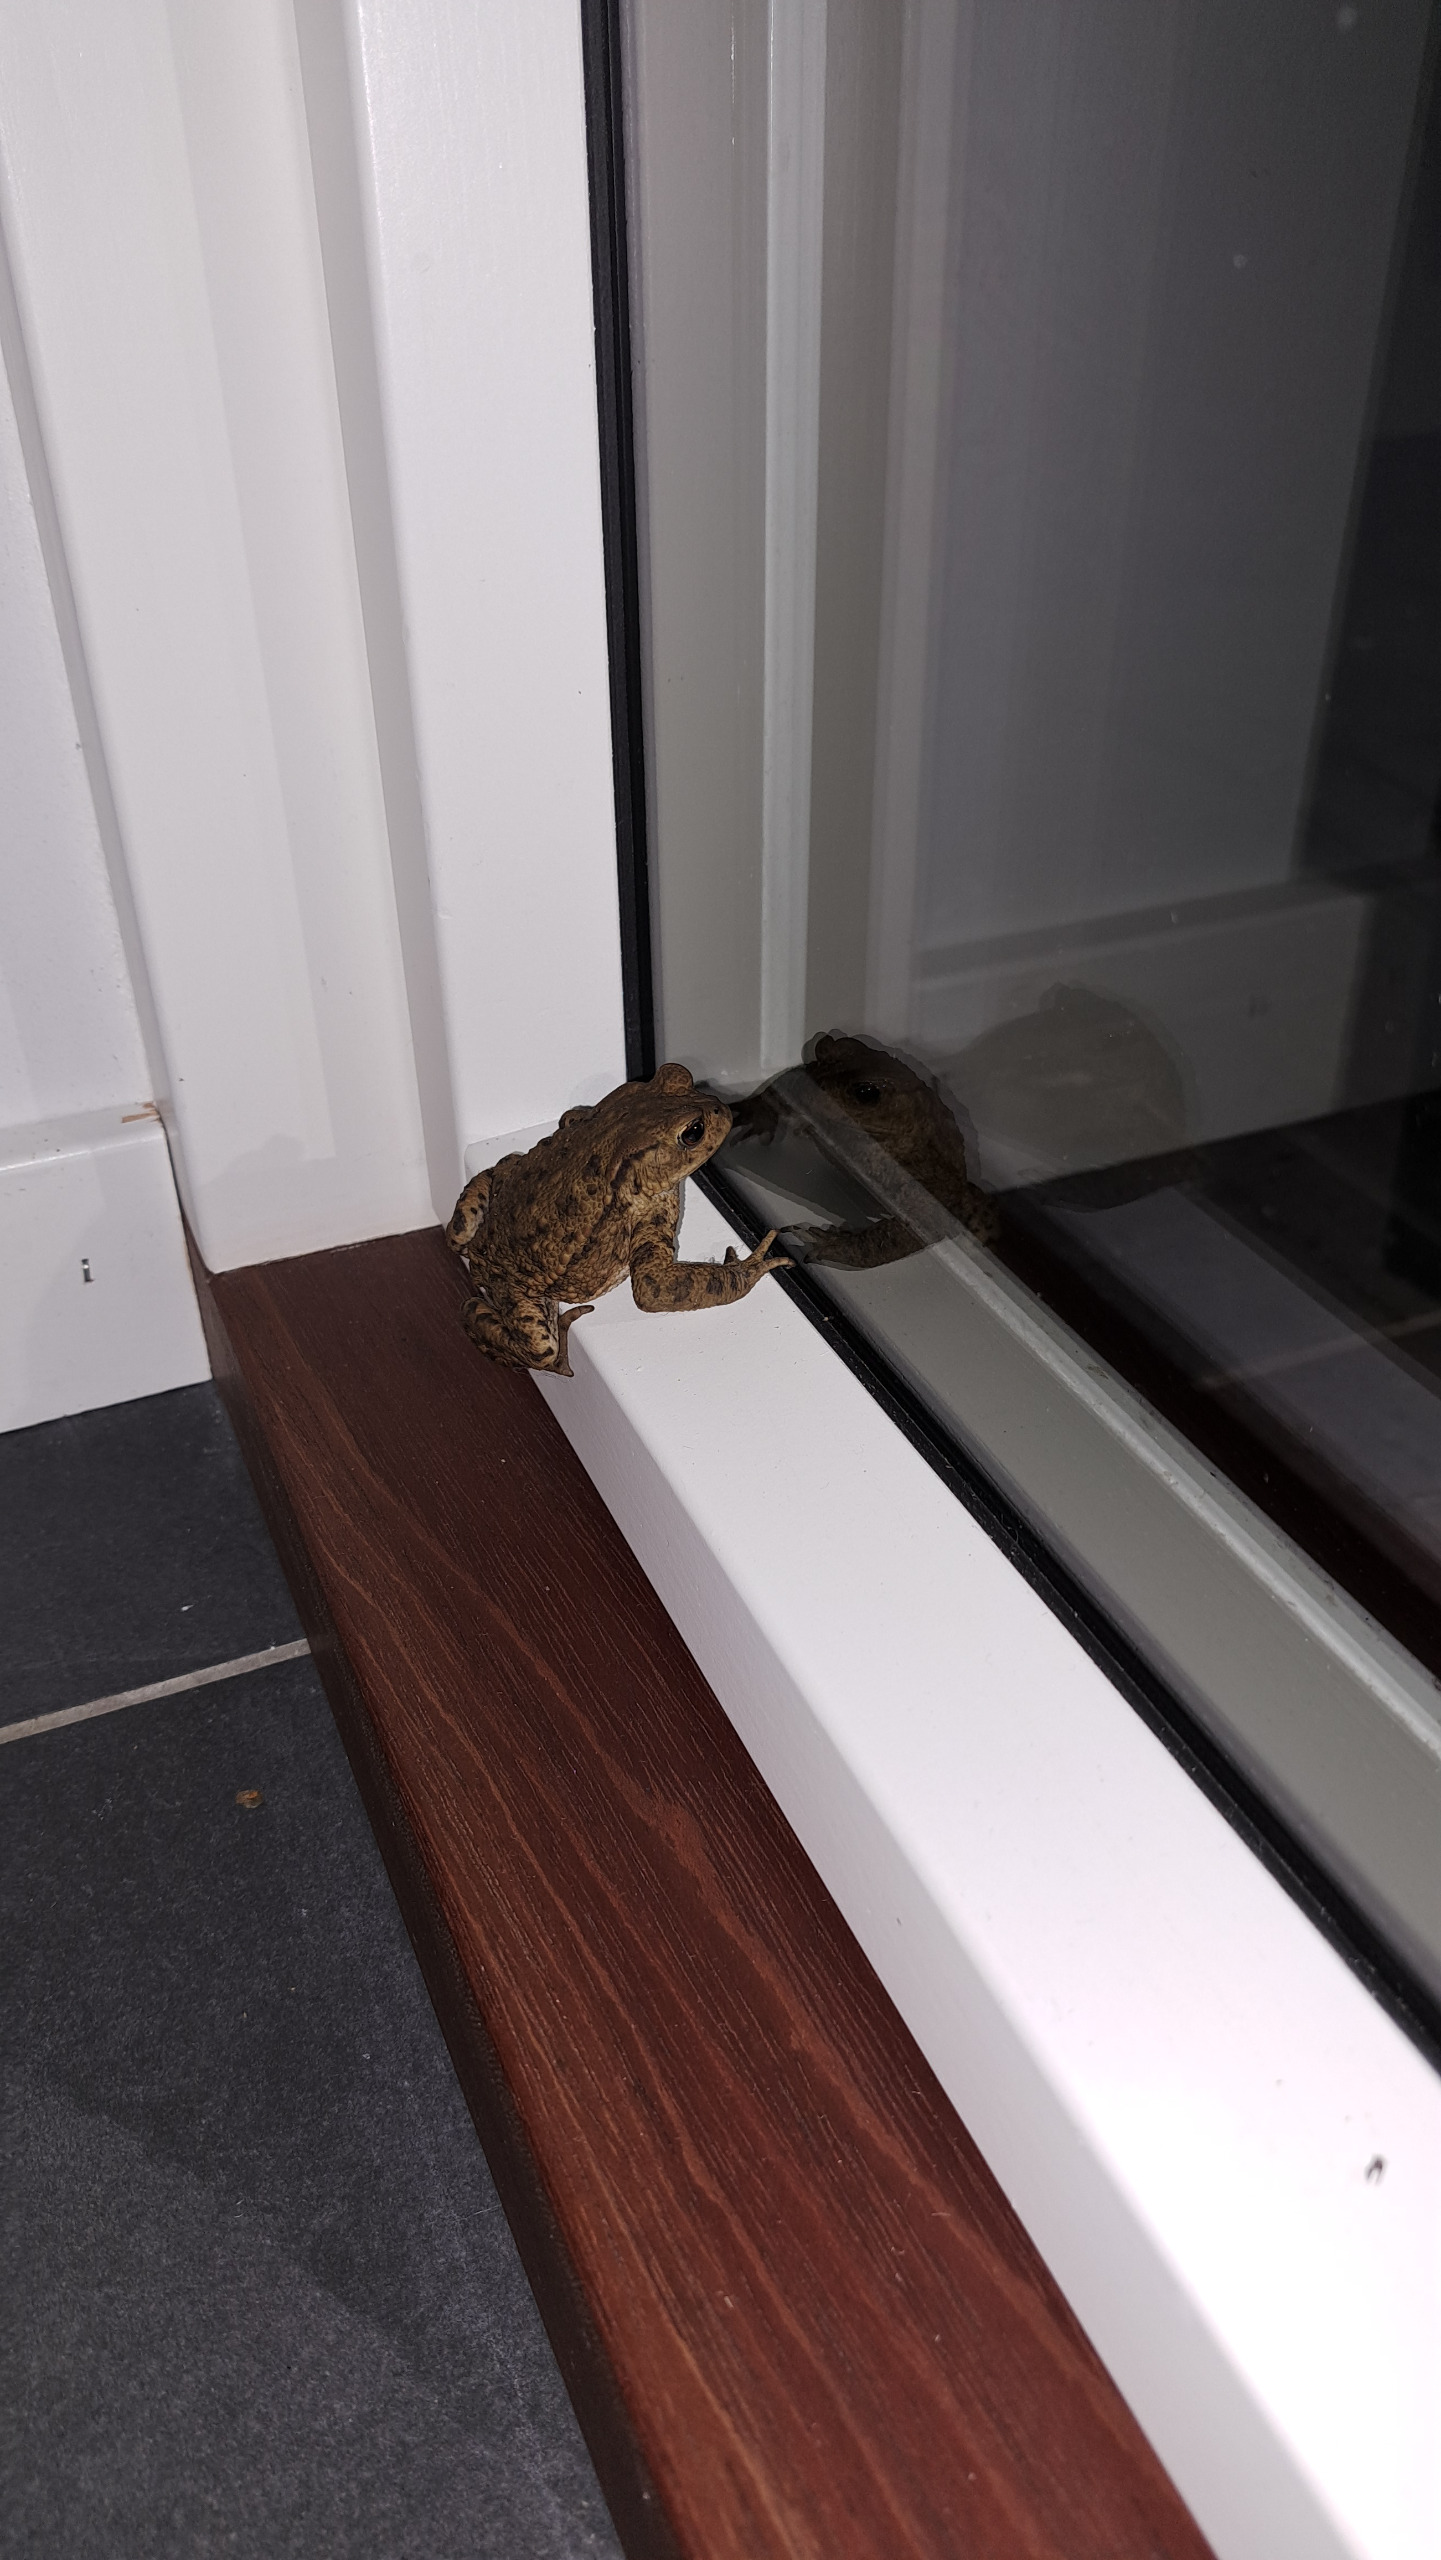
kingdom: Animalia
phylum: Chordata
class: Amphibia
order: Anura
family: Bufonidae
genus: Bufo
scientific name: Bufo bufo
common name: Skrubtudse
